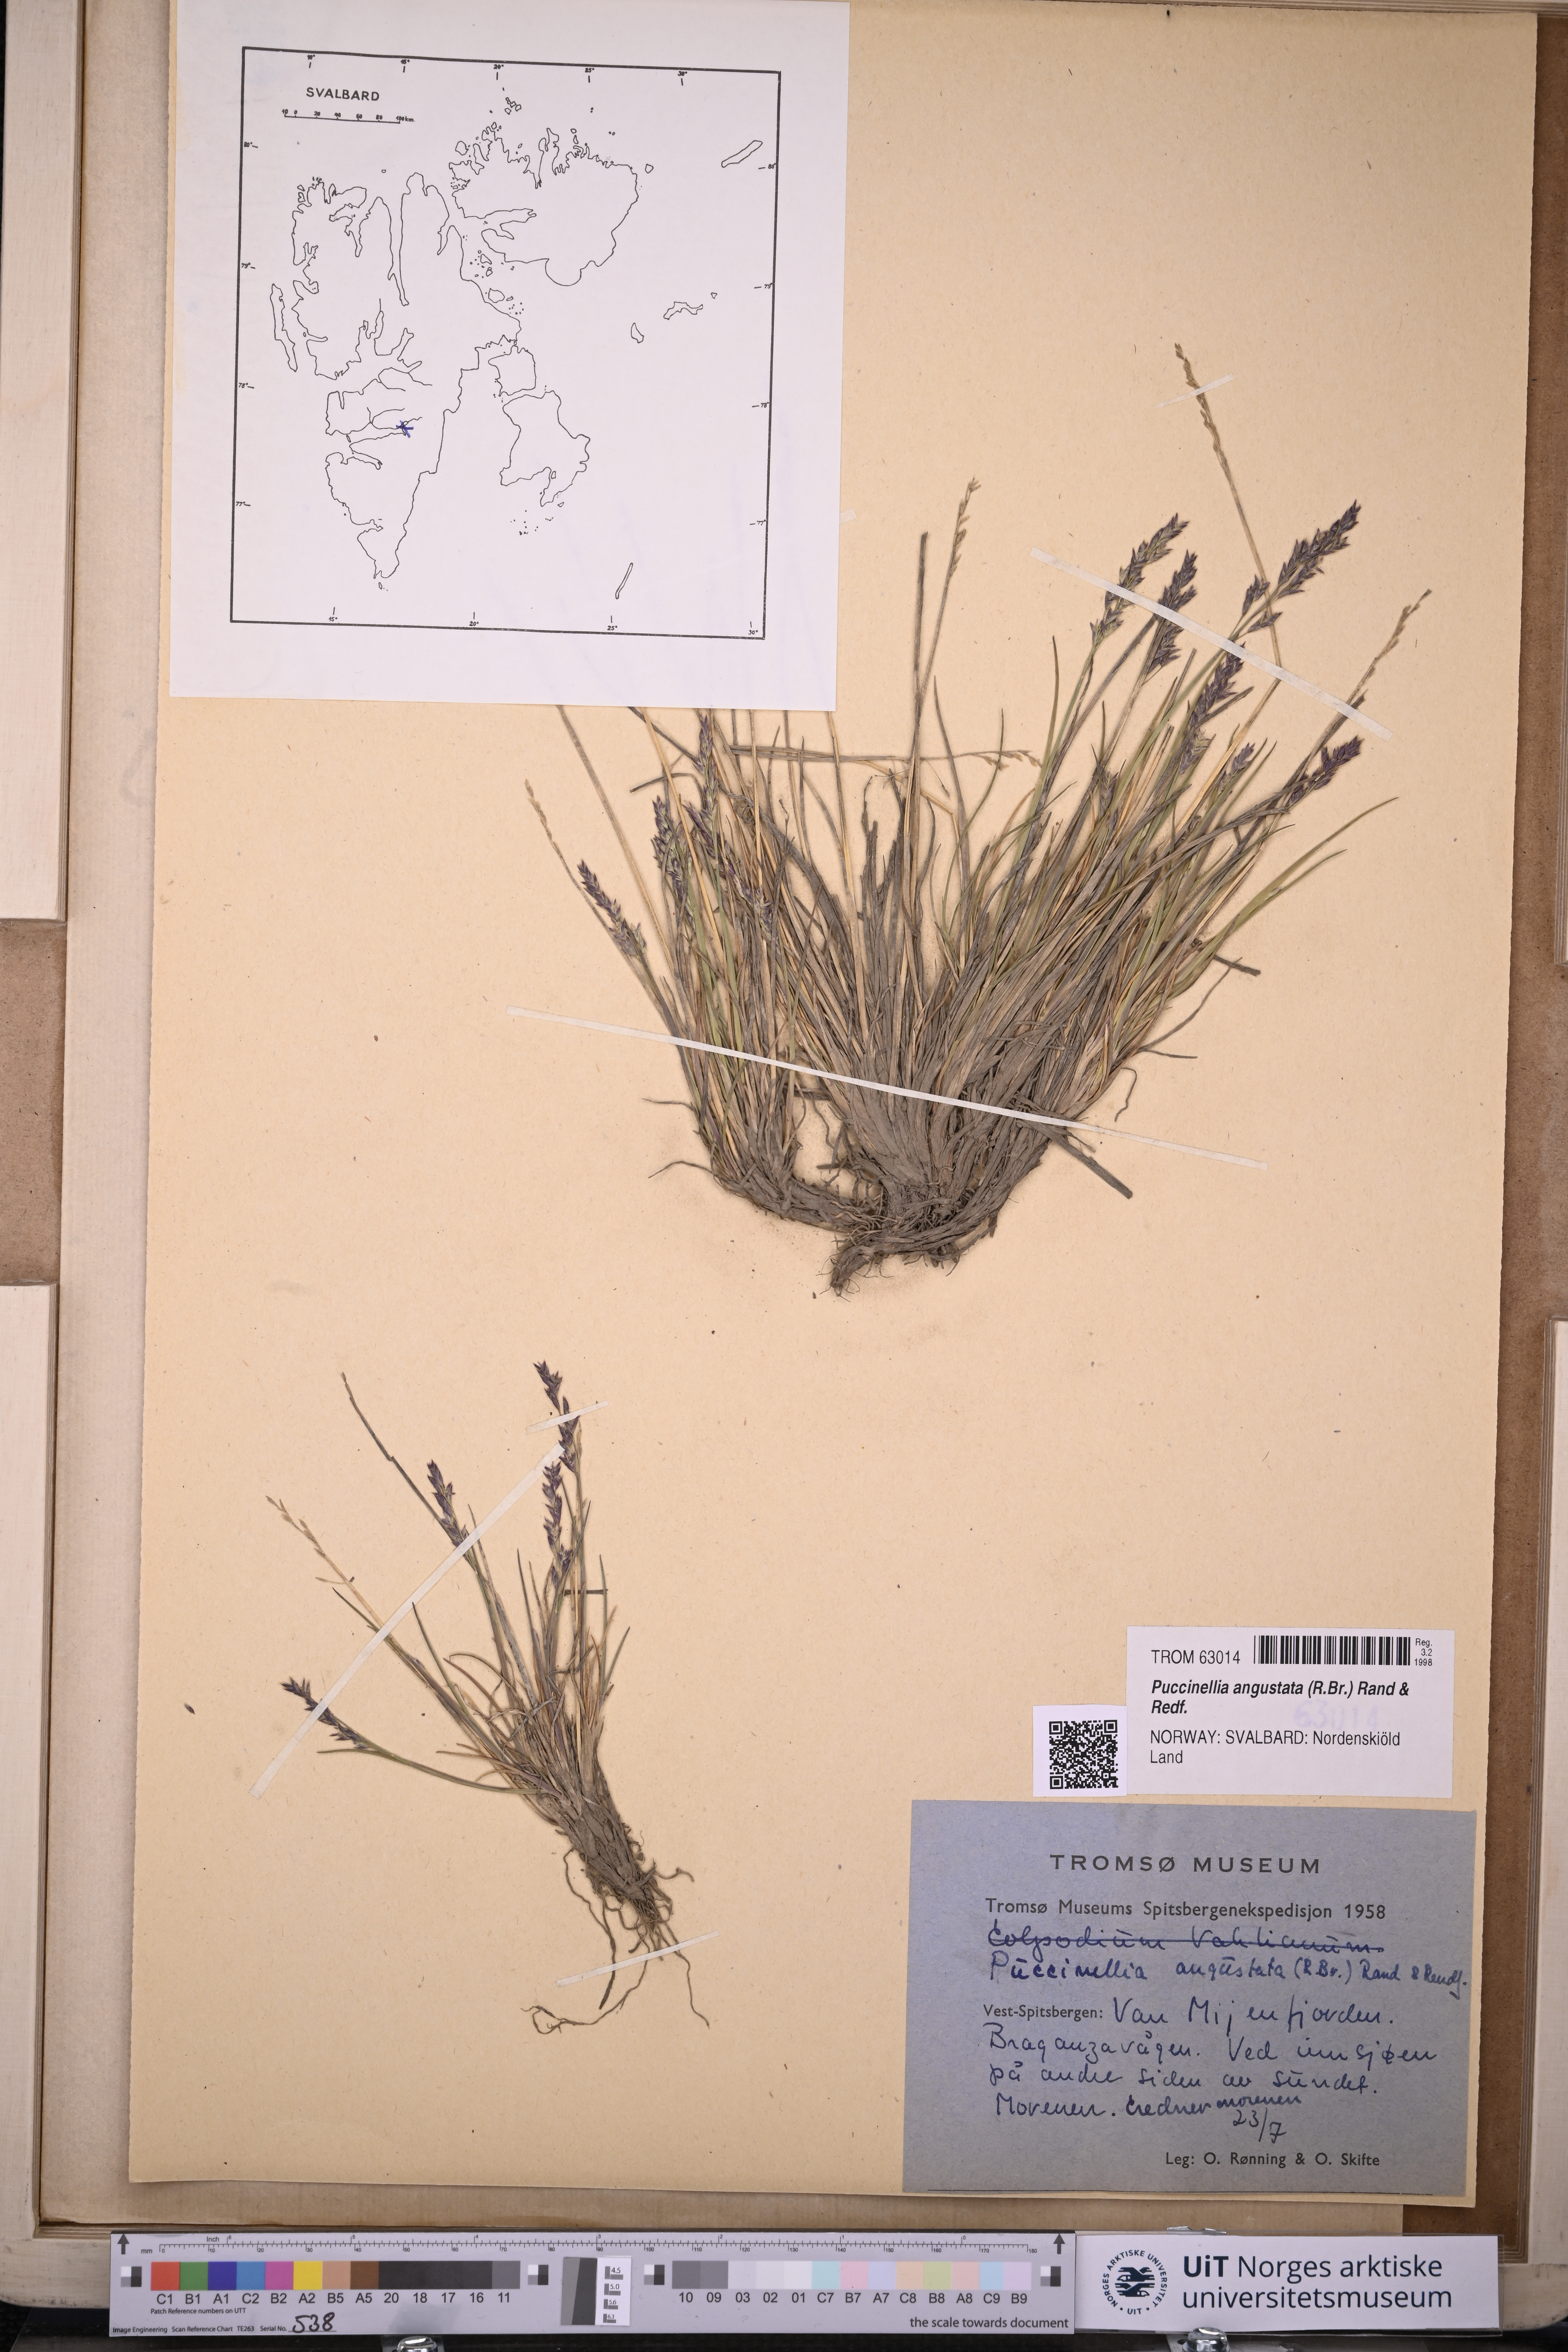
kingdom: Plantae
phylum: Tracheophyta
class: Liliopsida
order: Poales
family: Poaceae
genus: Puccinellia
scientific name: Puccinellia angustata
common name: Narrow alkaligrass
